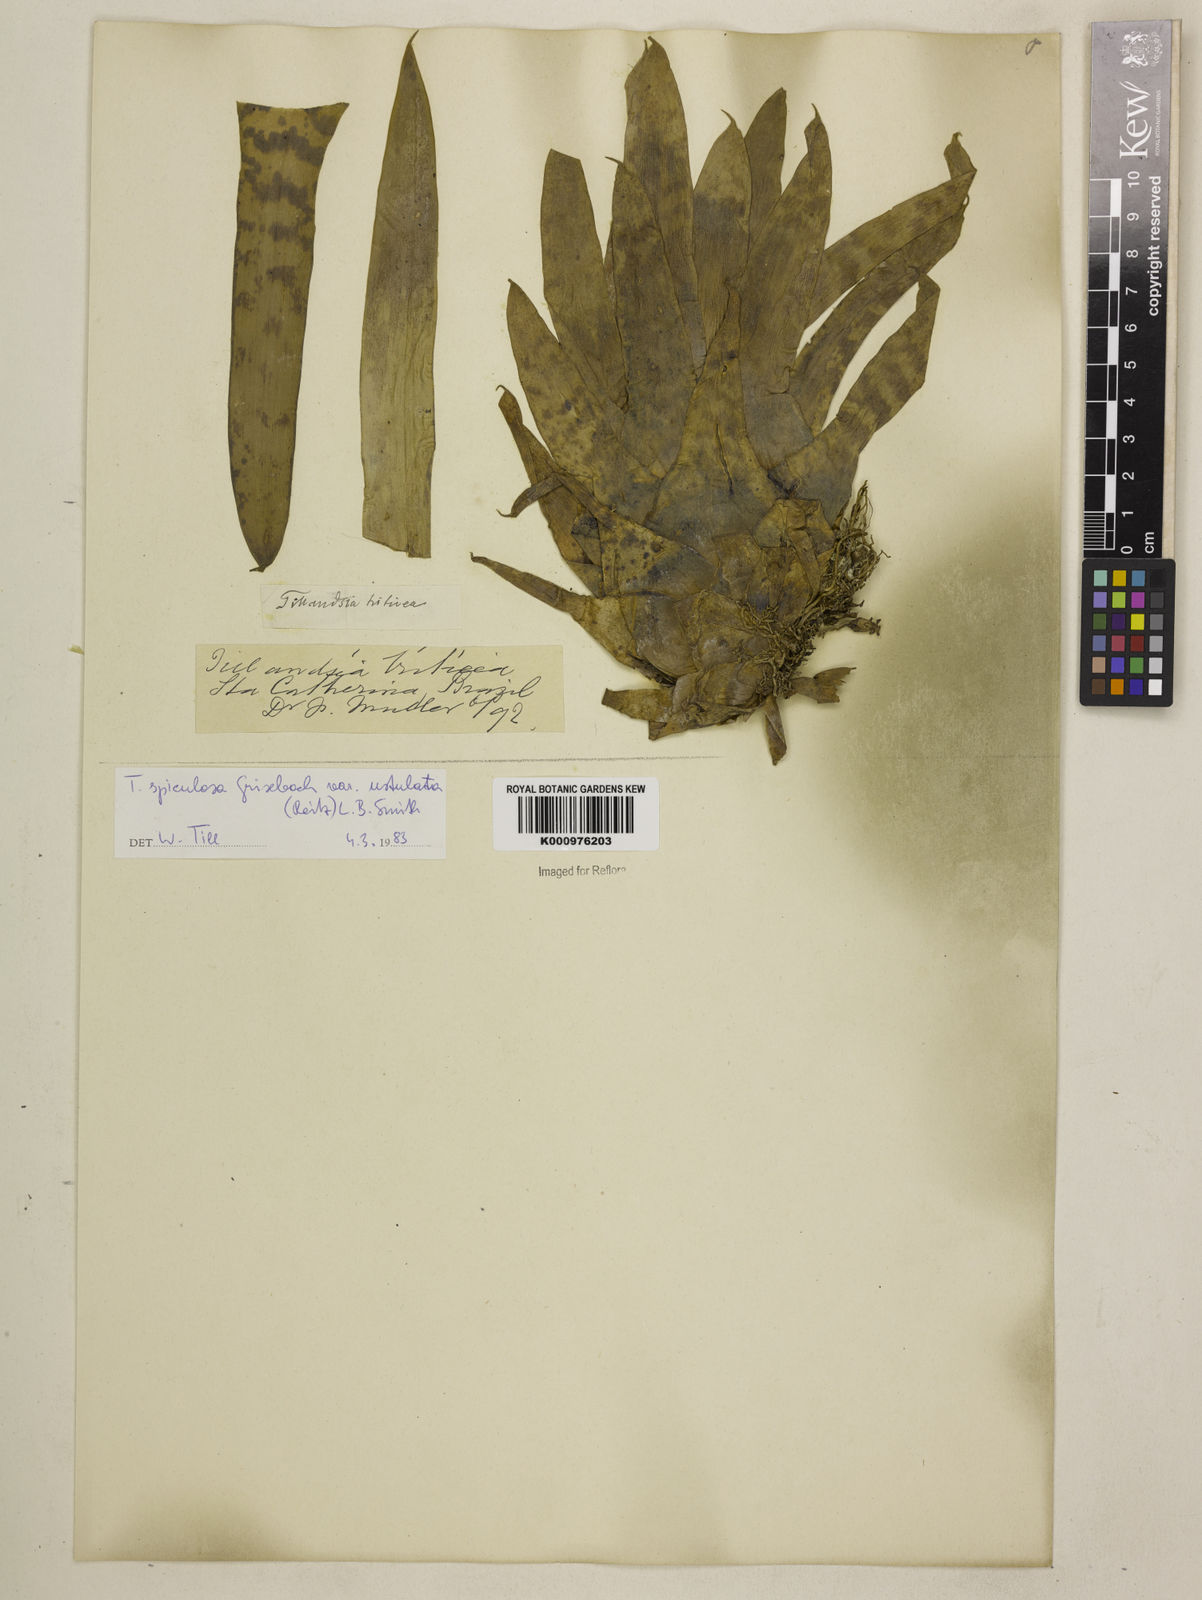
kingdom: Plantae
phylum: Tracheophyta
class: Liliopsida
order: Poales
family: Bromeliaceae
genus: Racinaea
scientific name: Racinaea spiculosa
